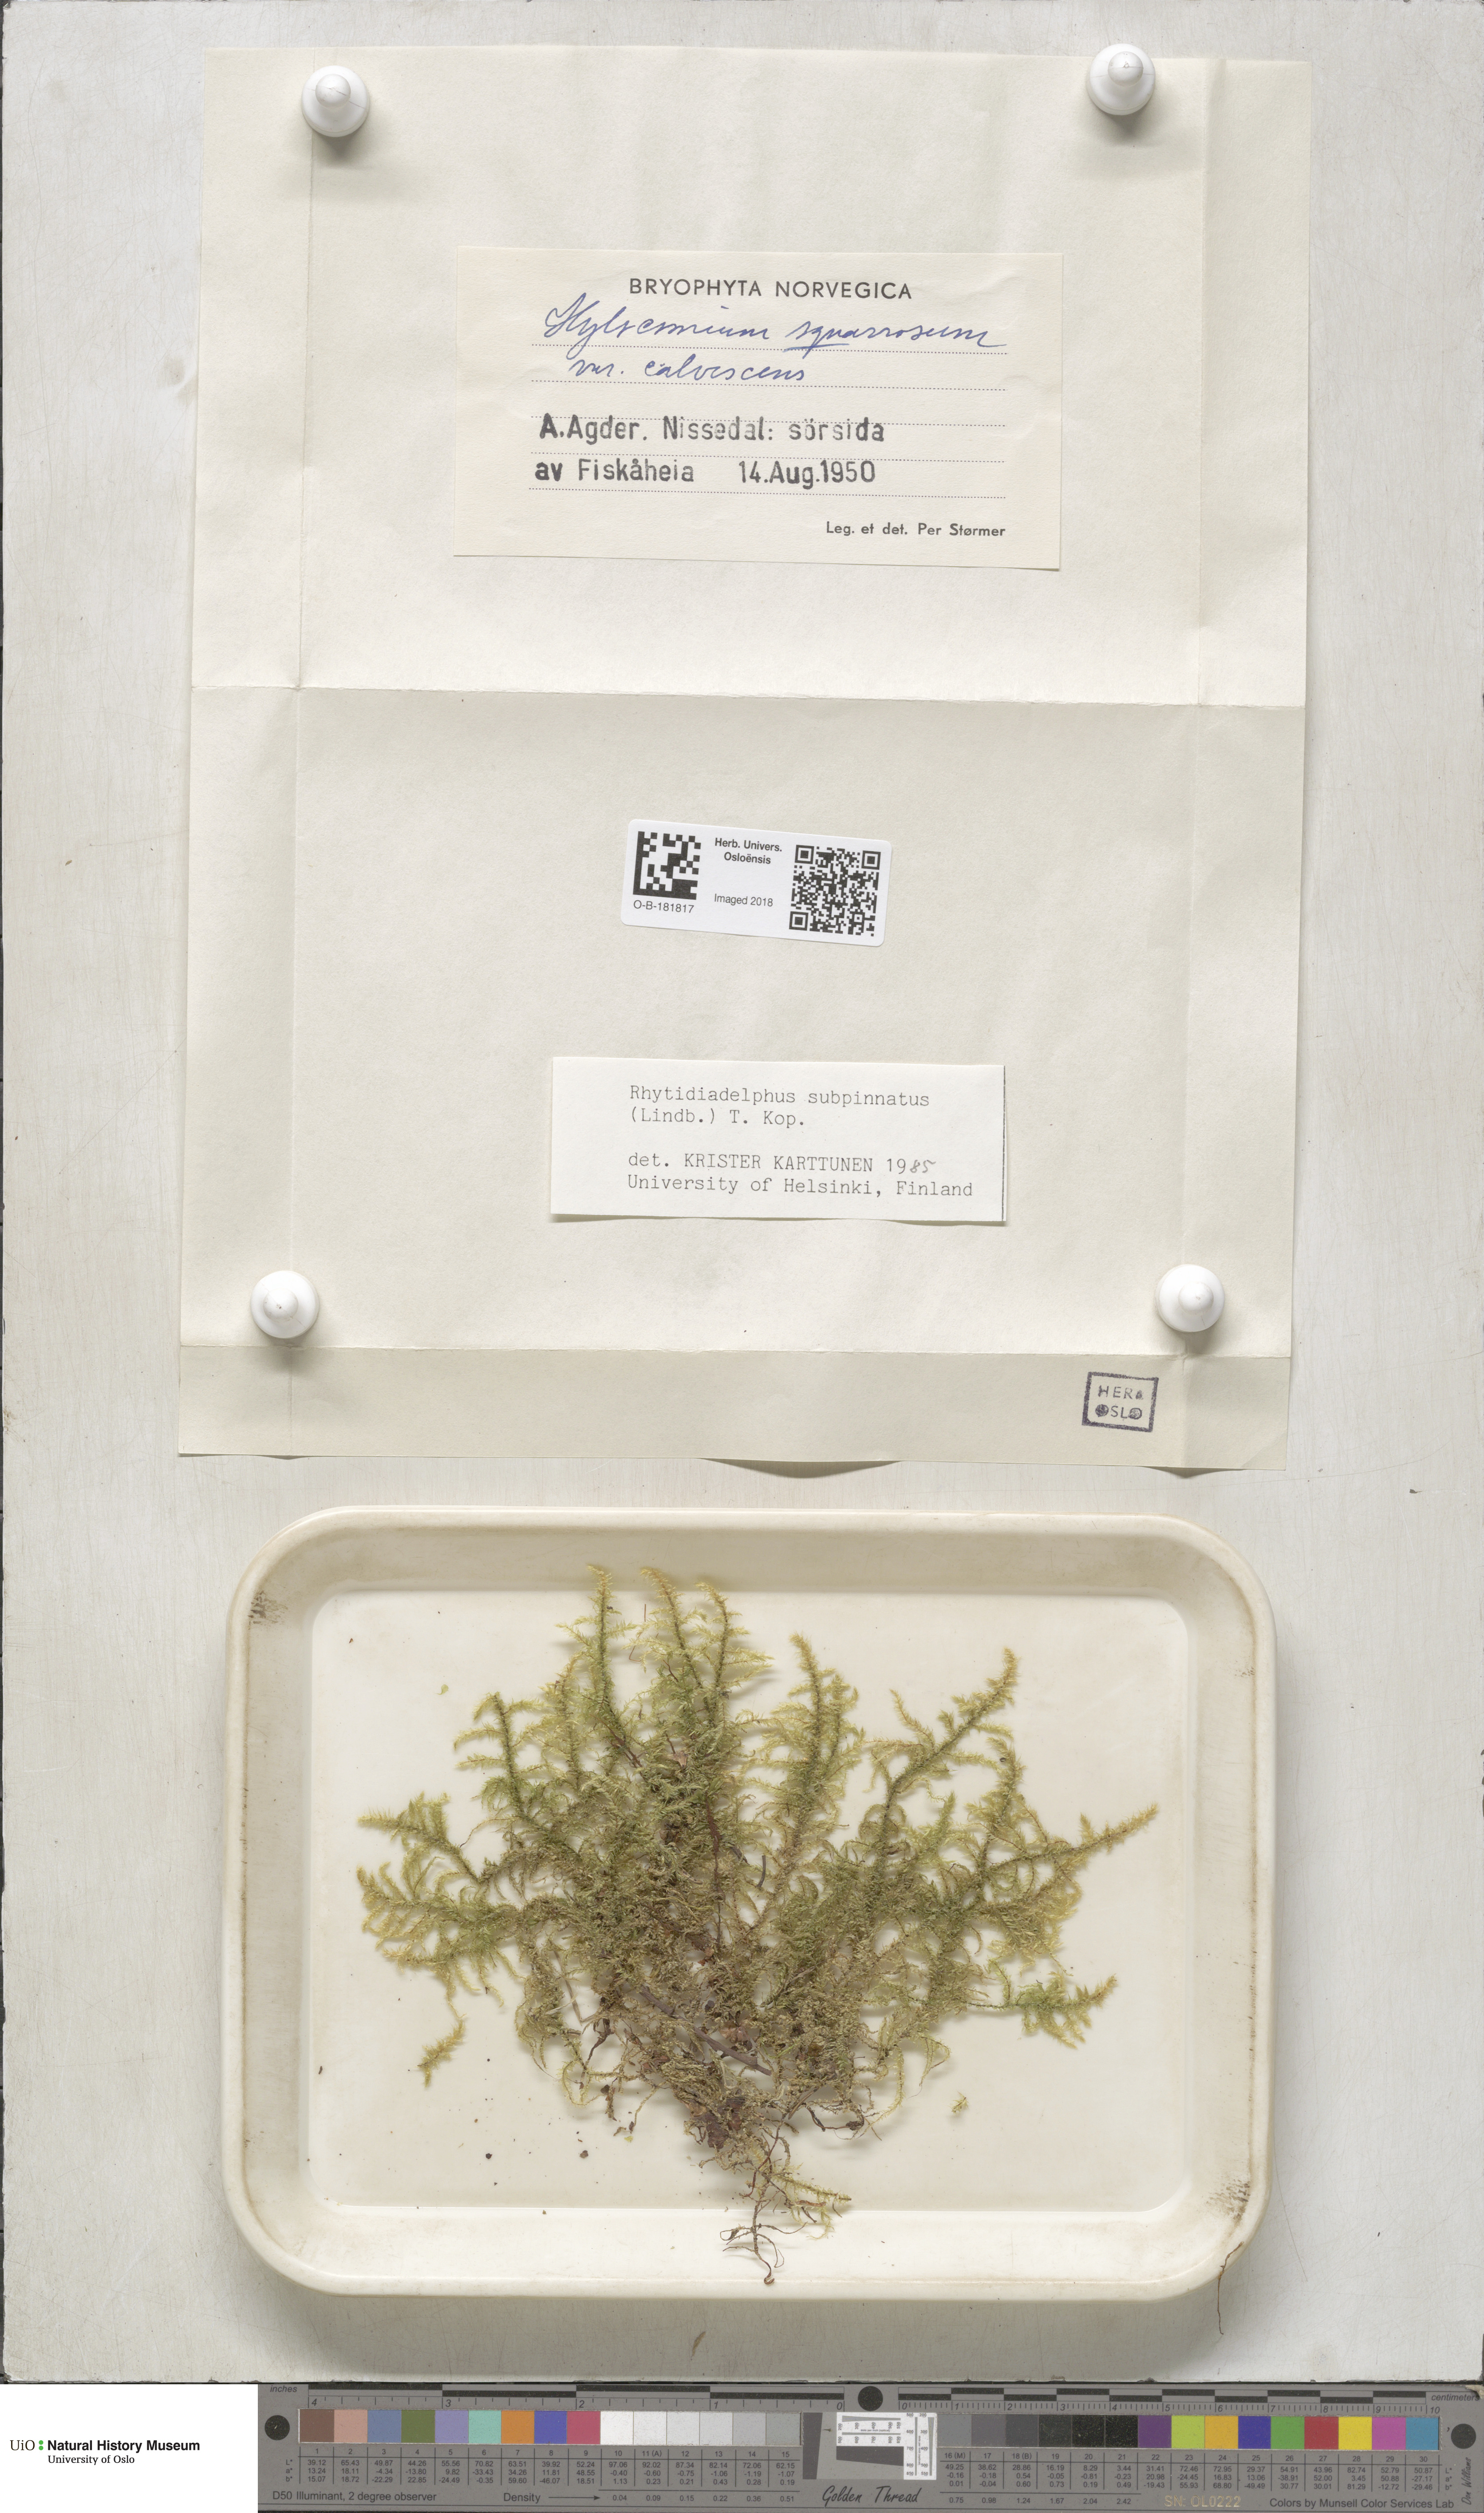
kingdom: Plantae
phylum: Bryophyta
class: Bryopsida
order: Hypnales
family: Hylocomiaceae
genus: Rhytidiadelphus
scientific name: Rhytidiadelphus subpinnatus
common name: Subpinnate gooseneck moss
